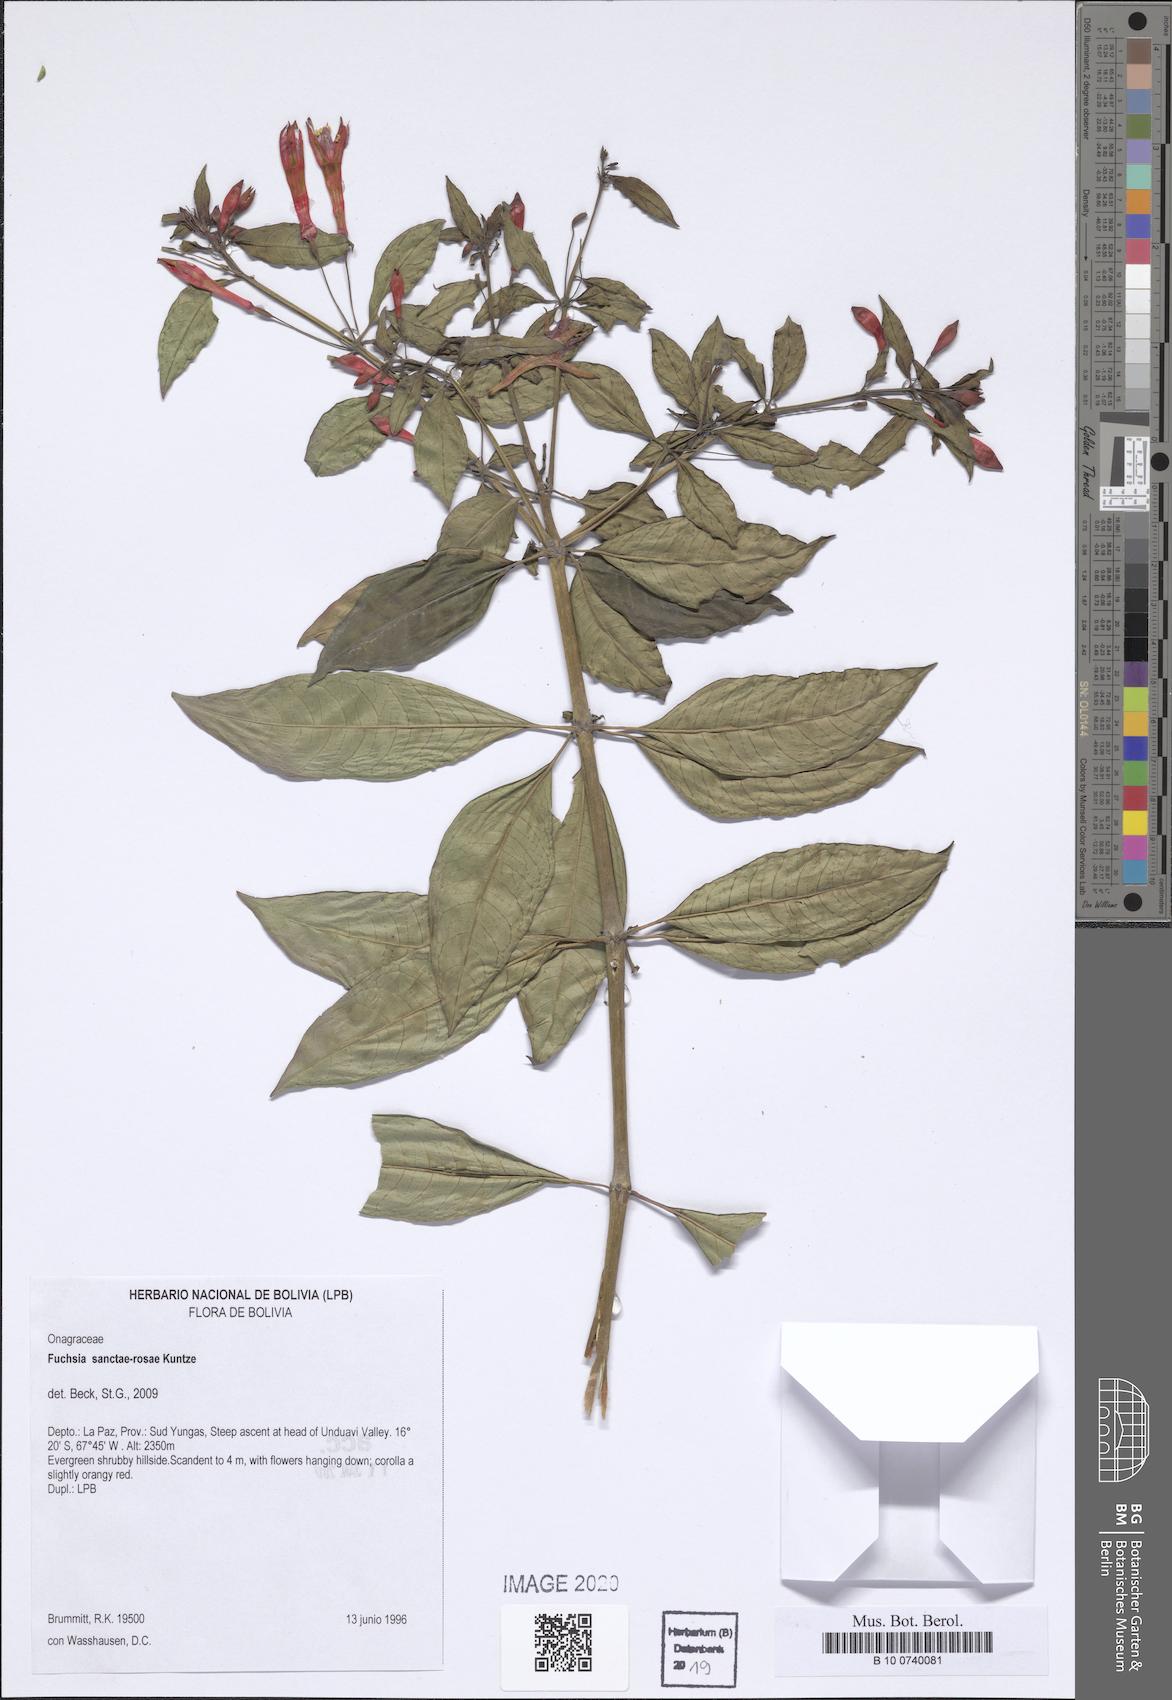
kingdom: Plantae
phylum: Tracheophyta
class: Magnoliopsida
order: Myrtales
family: Onagraceae
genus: Fuchsia
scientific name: Fuchsia sanctae-rosae
